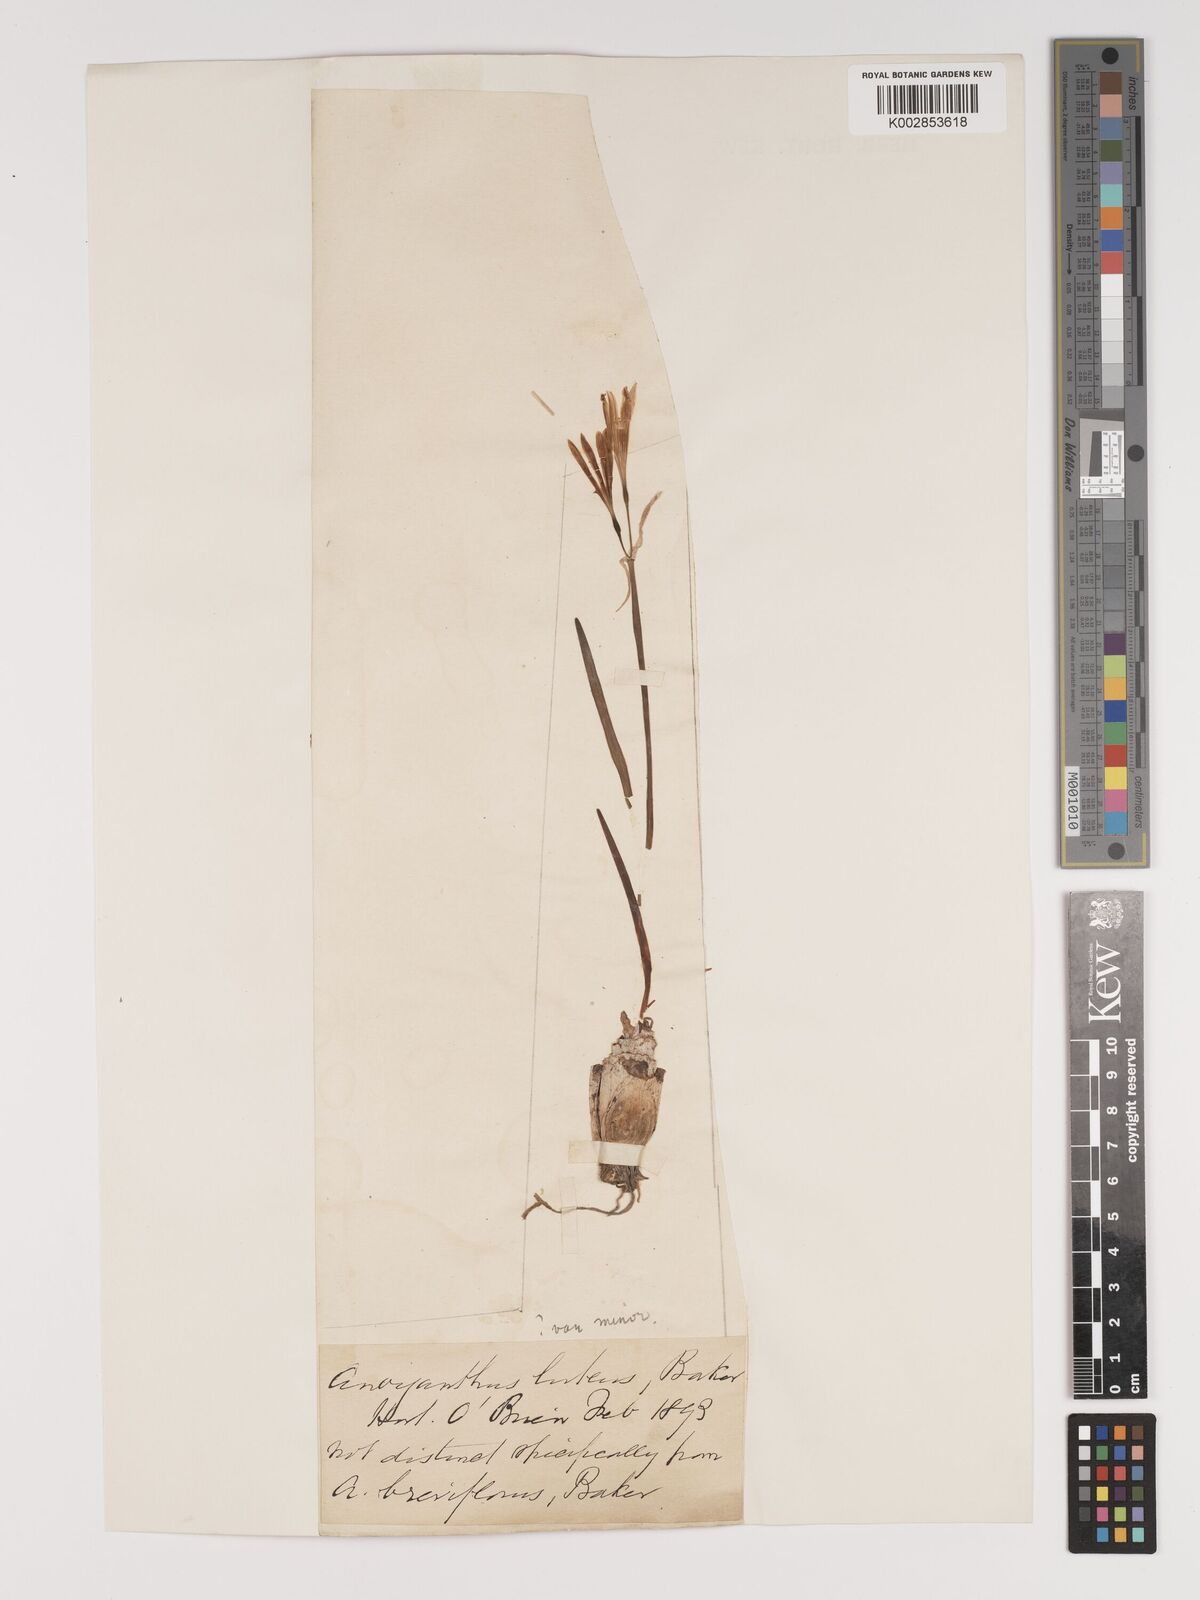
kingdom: Plantae
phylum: Tracheophyta
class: Liliopsida
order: Asparagales
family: Amaryllidaceae
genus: Cyrtanthus
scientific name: Cyrtanthus breviflorus
